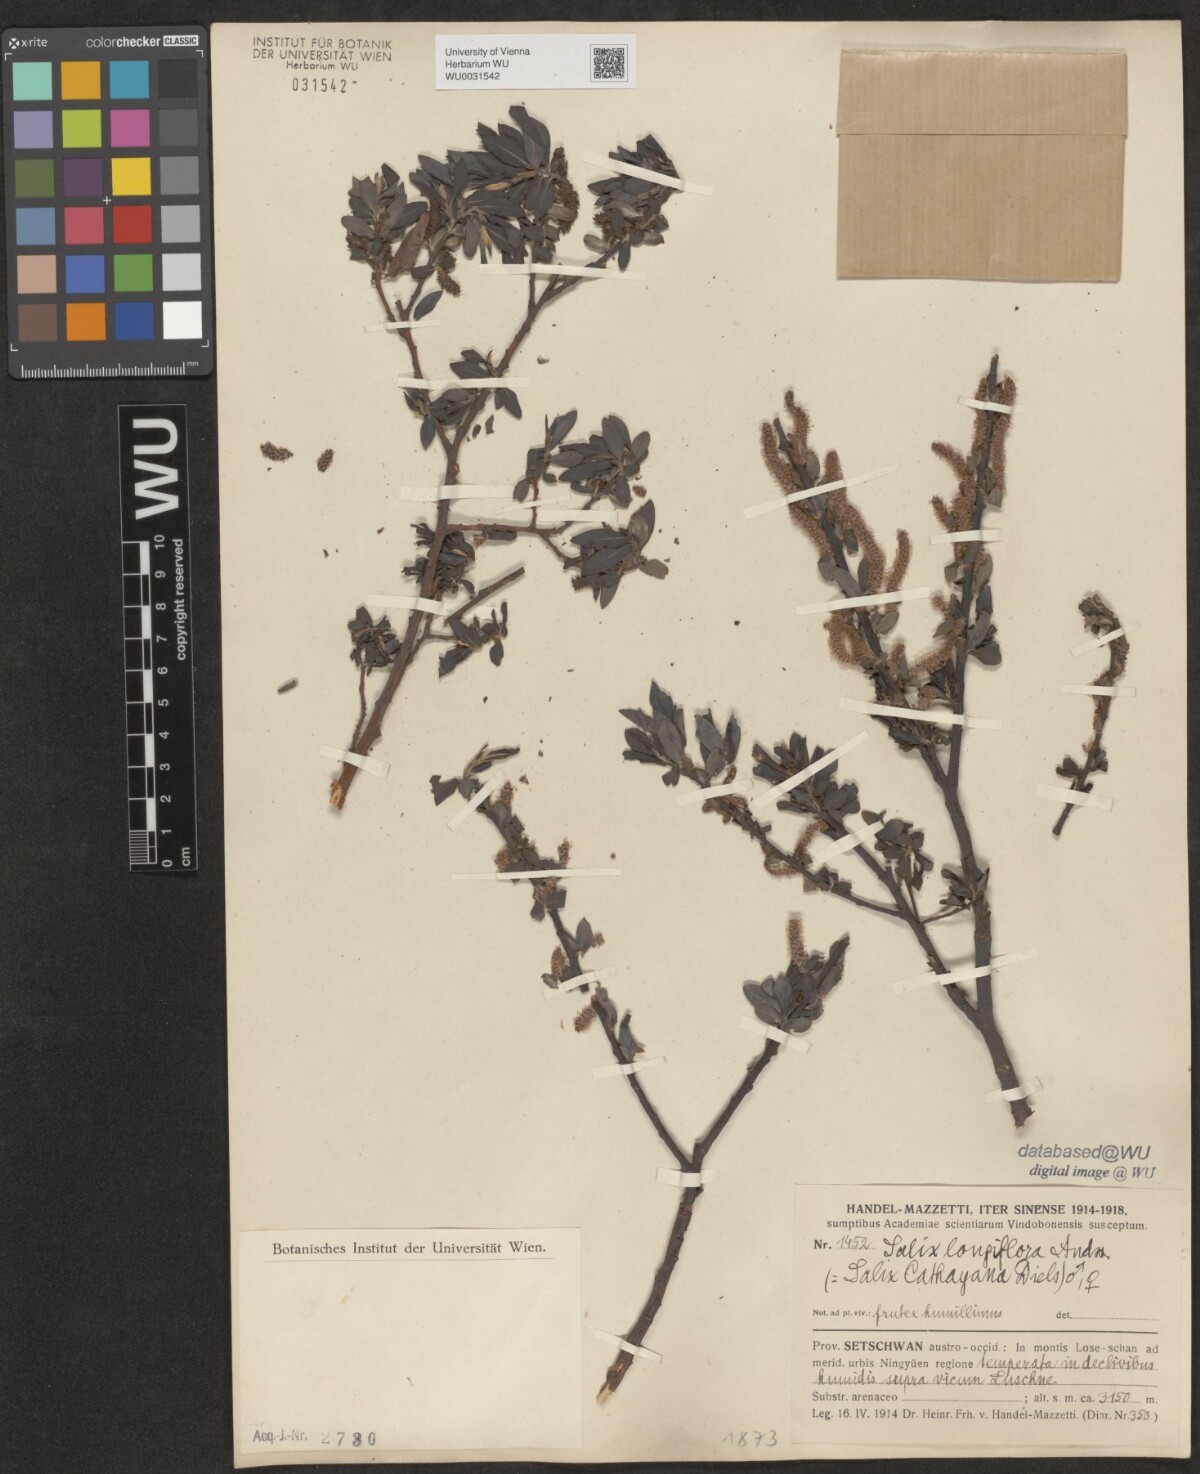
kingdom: Plantae
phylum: Tracheophyta
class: Magnoliopsida
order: Malpighiales
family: Salicaceae
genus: Salix
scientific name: Salix longiflora
